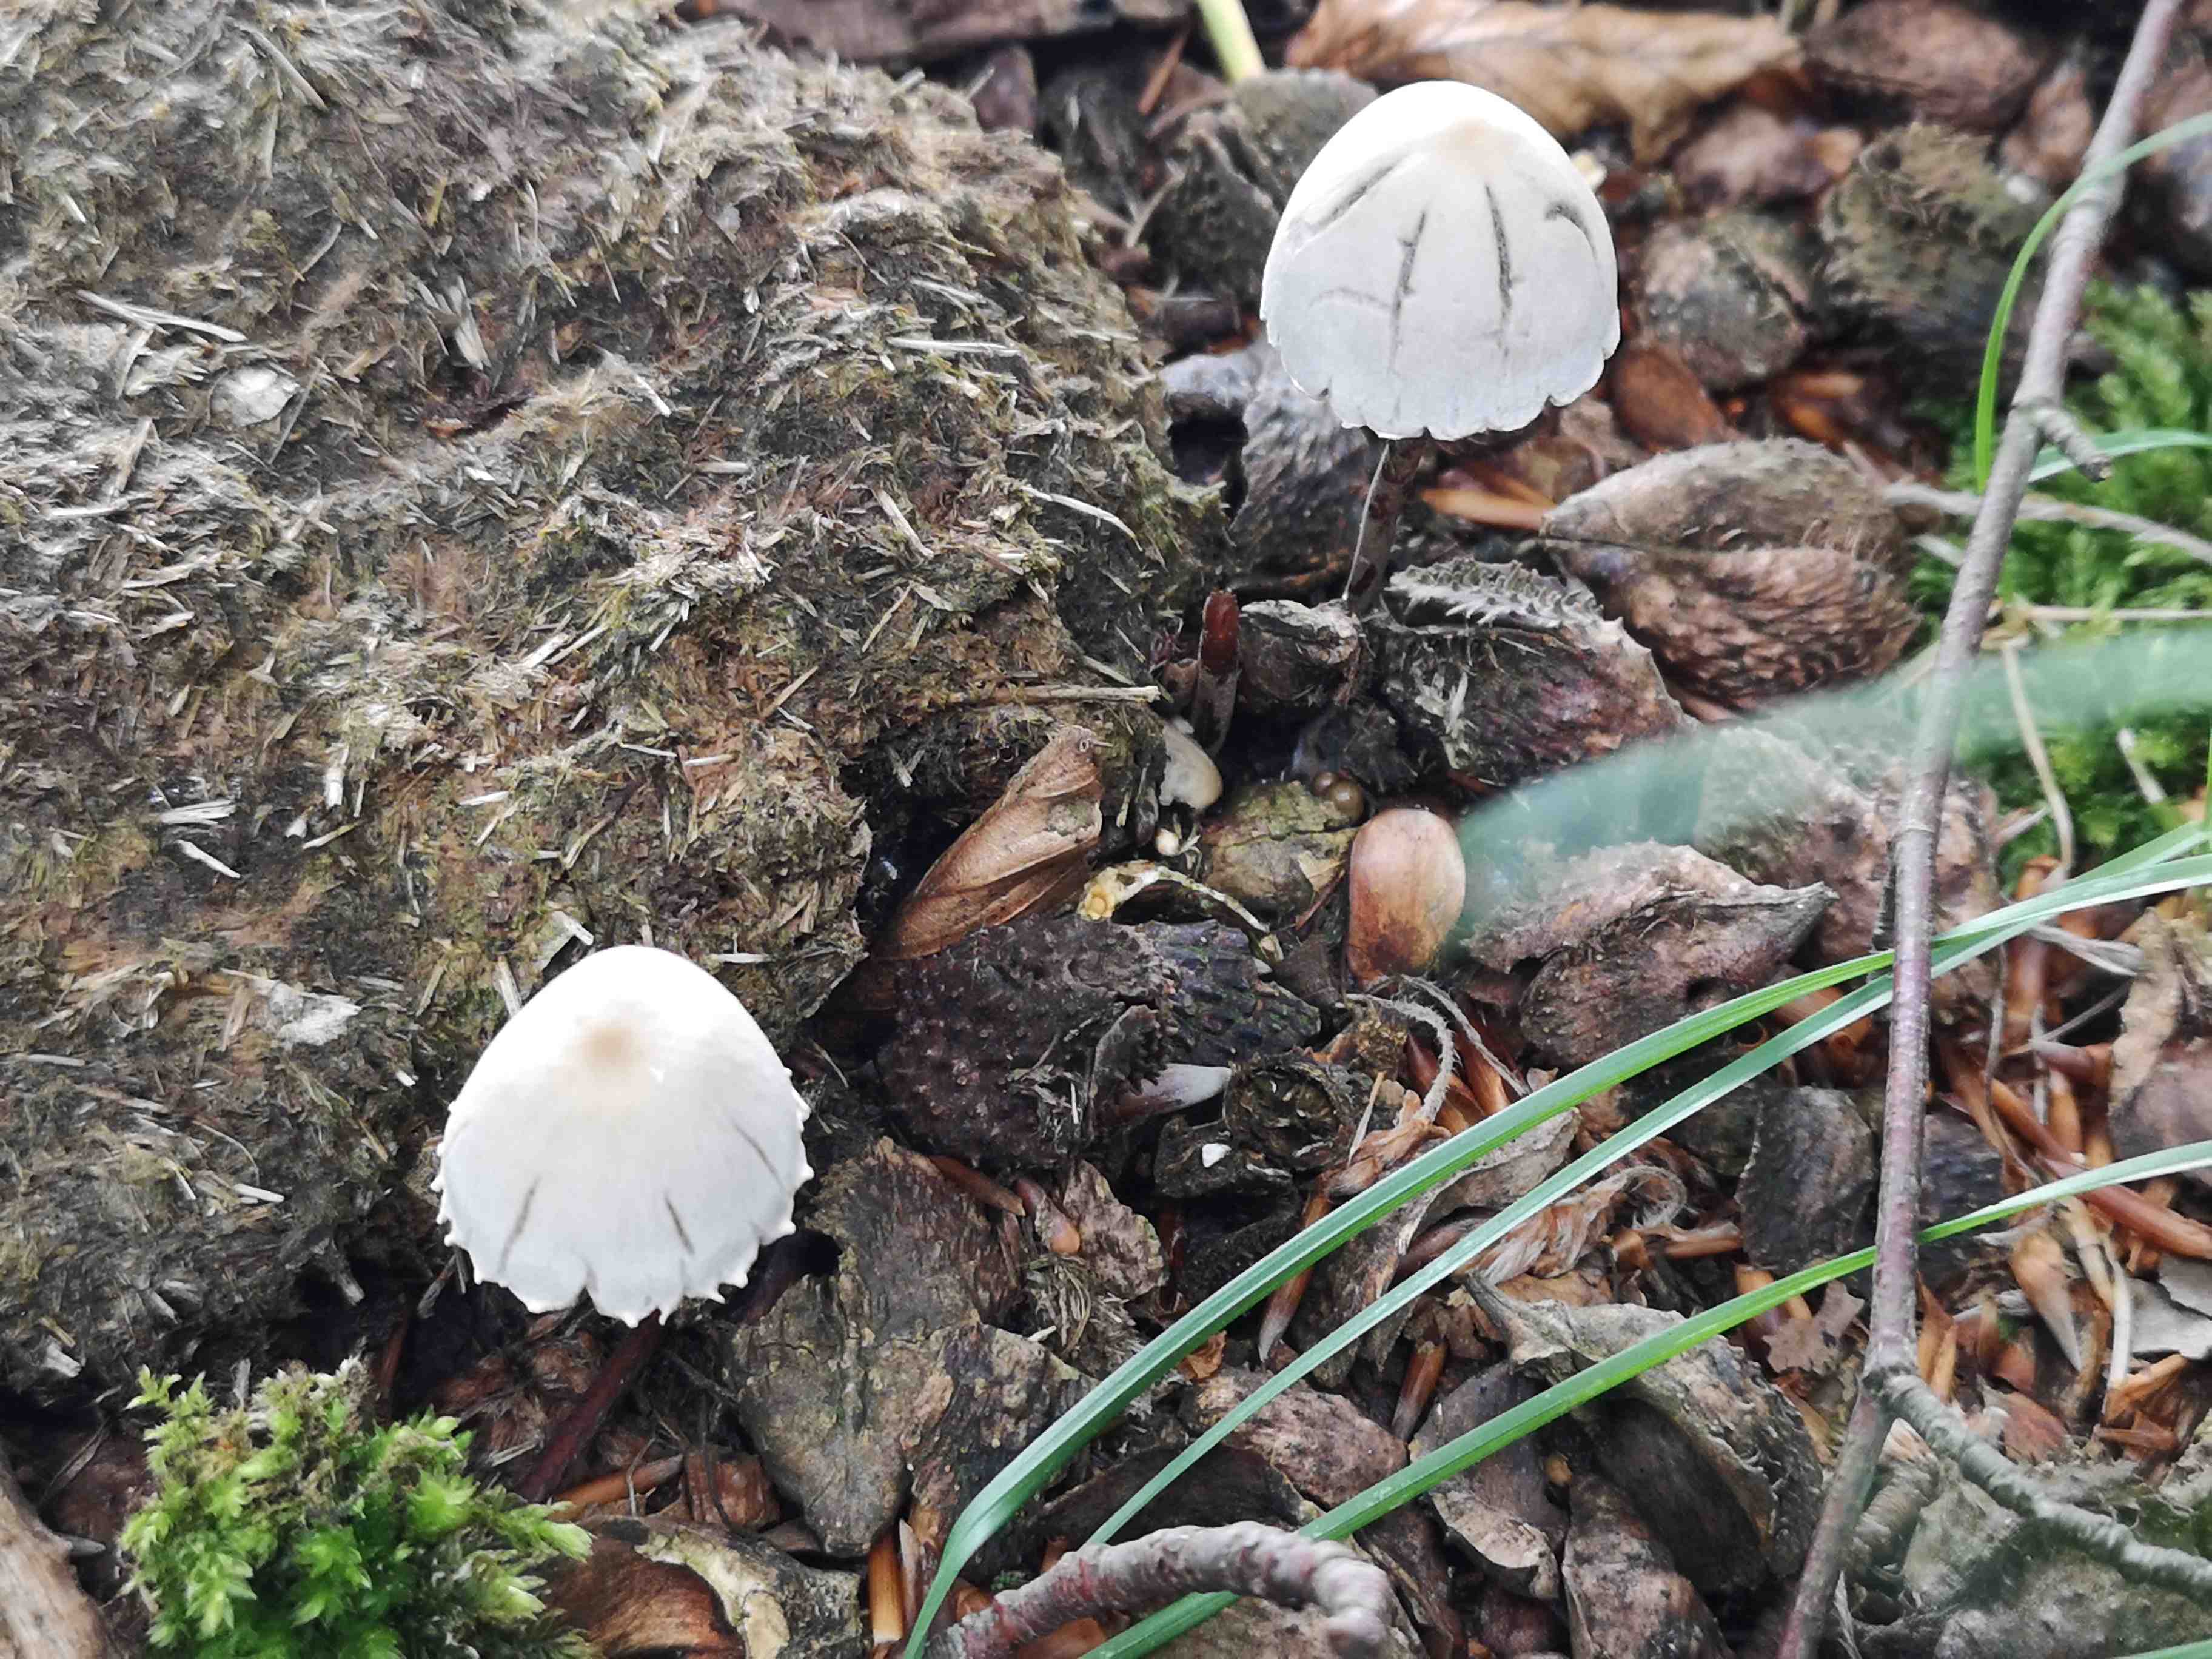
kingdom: Fungi
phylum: Basidiomycota
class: Agaricomycetes
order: Agaricales
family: Bolbitiaceae
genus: Panaeolus
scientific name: Panaeolus papilionaceus
